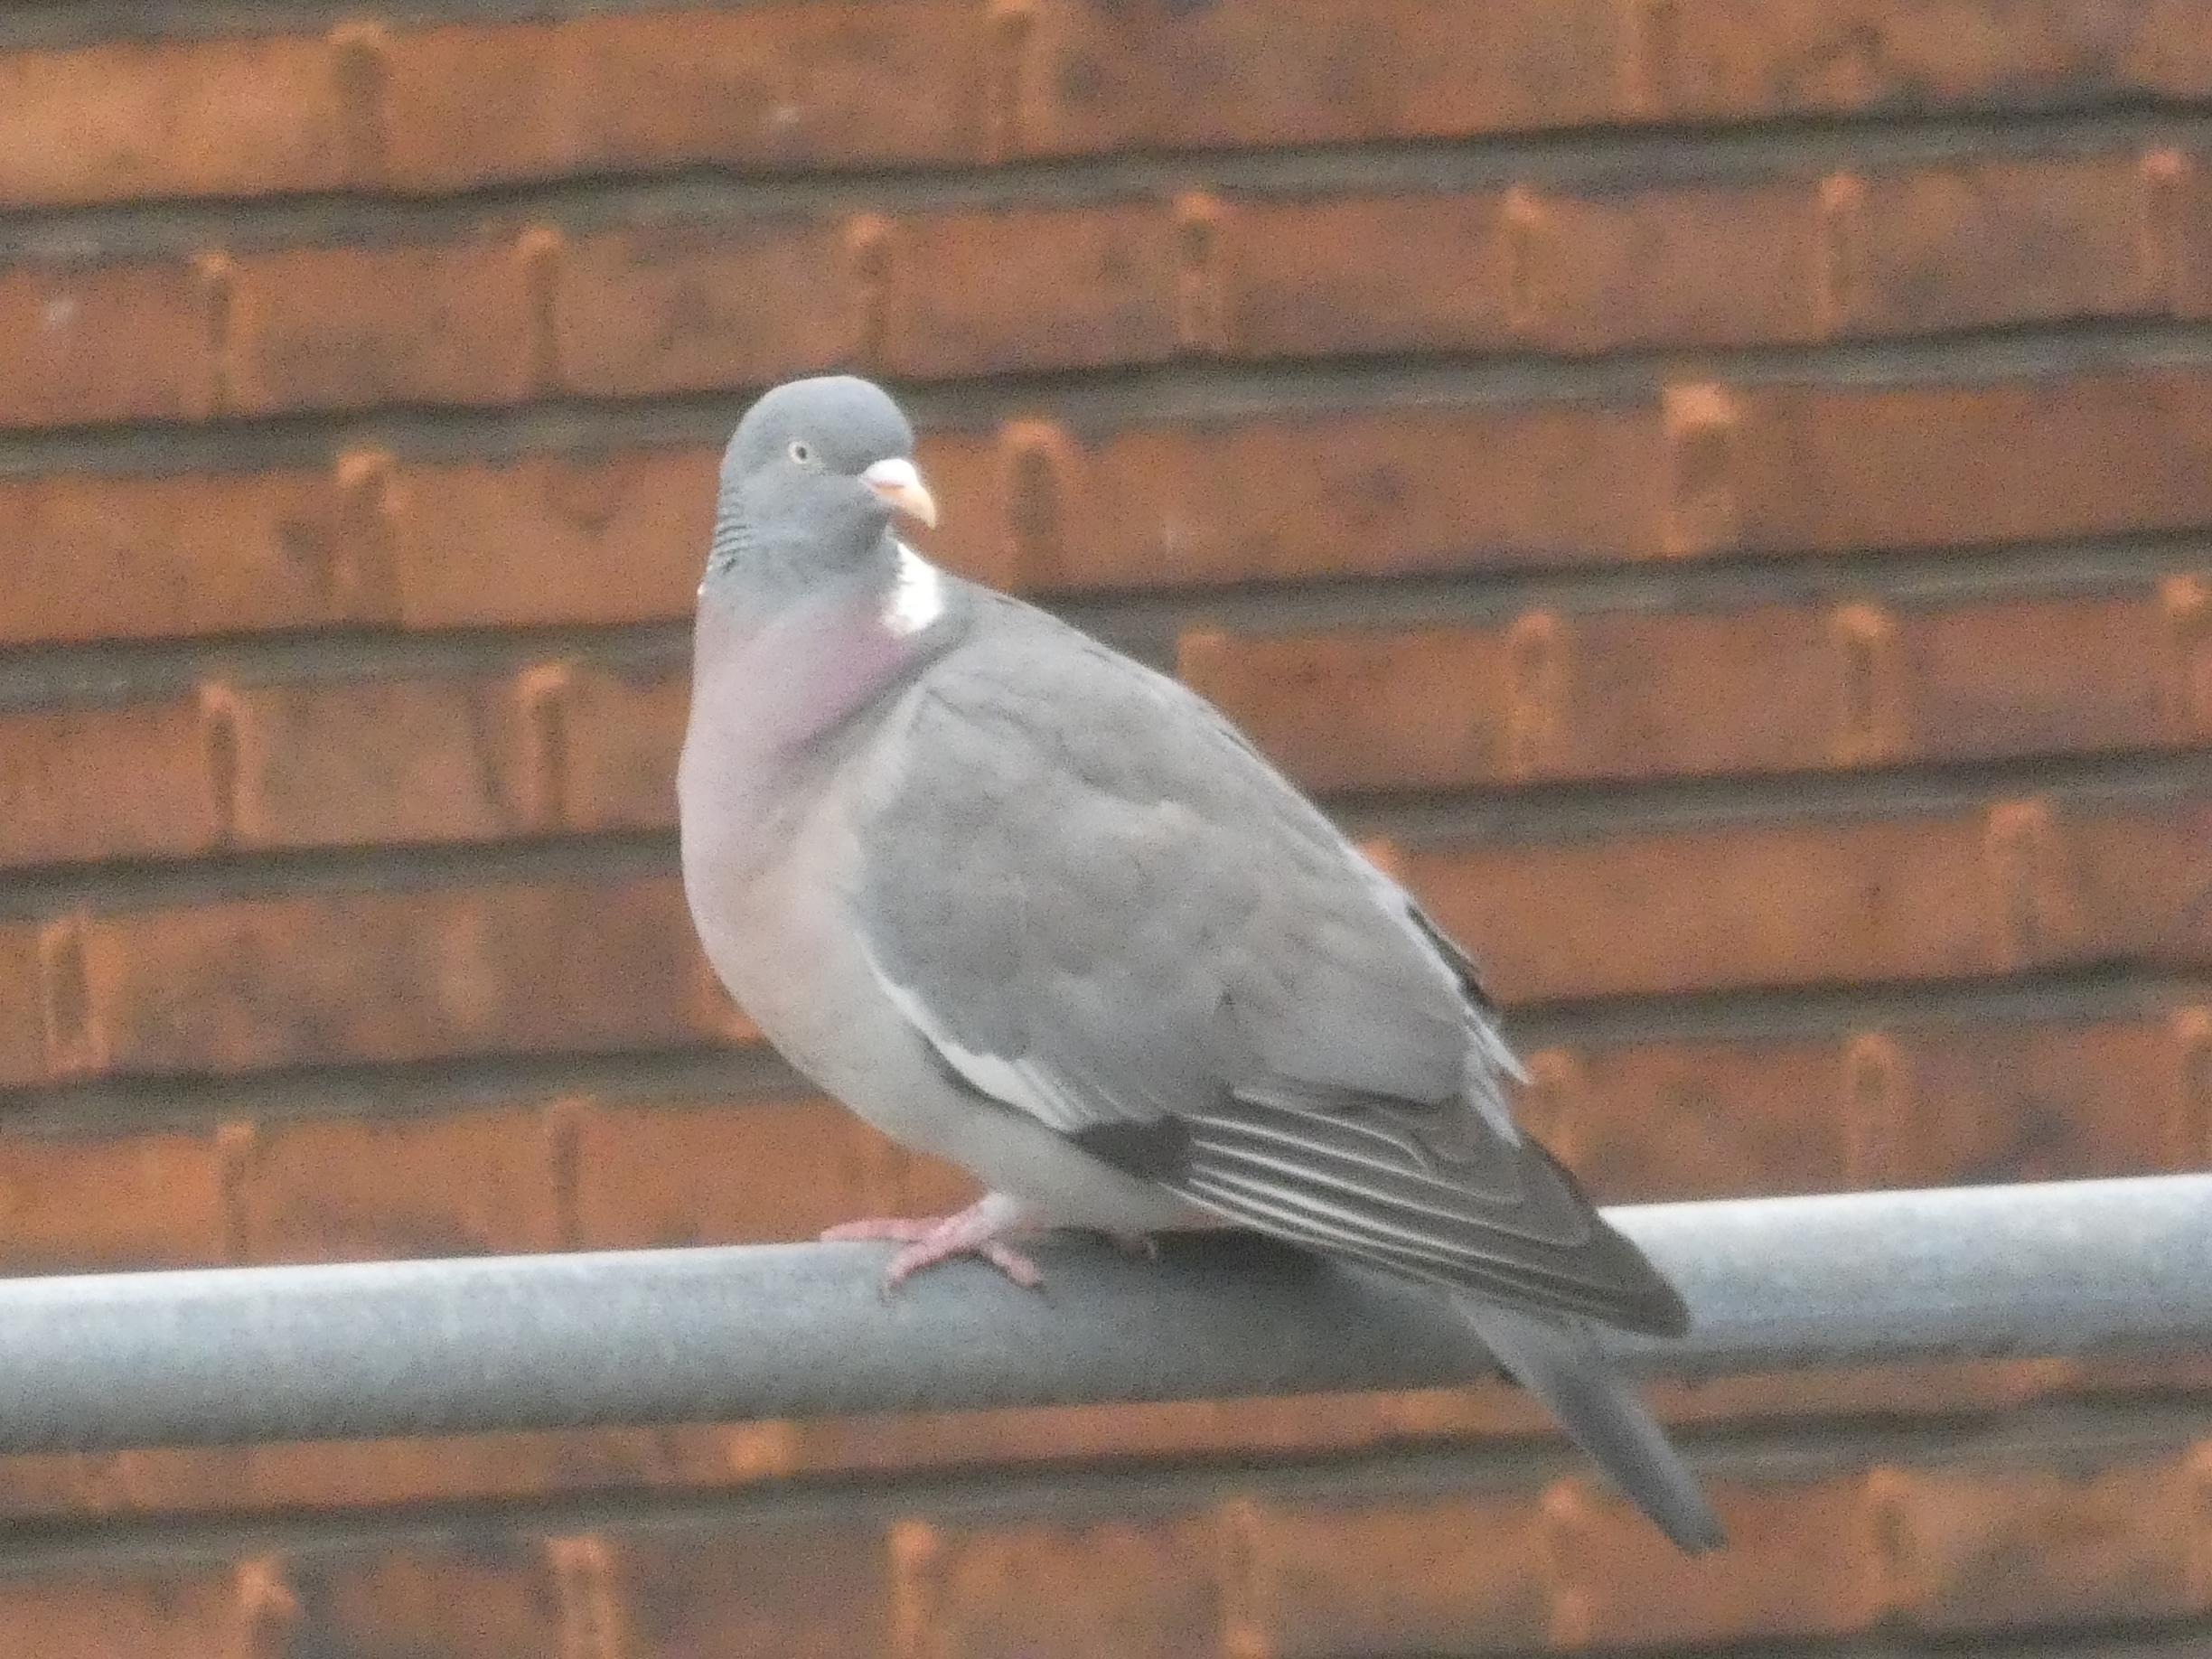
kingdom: Animalia
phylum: Chordata
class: Aves
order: Columbiformes
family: Columbidae
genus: Columba
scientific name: Columba palumbus
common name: Ringdue
